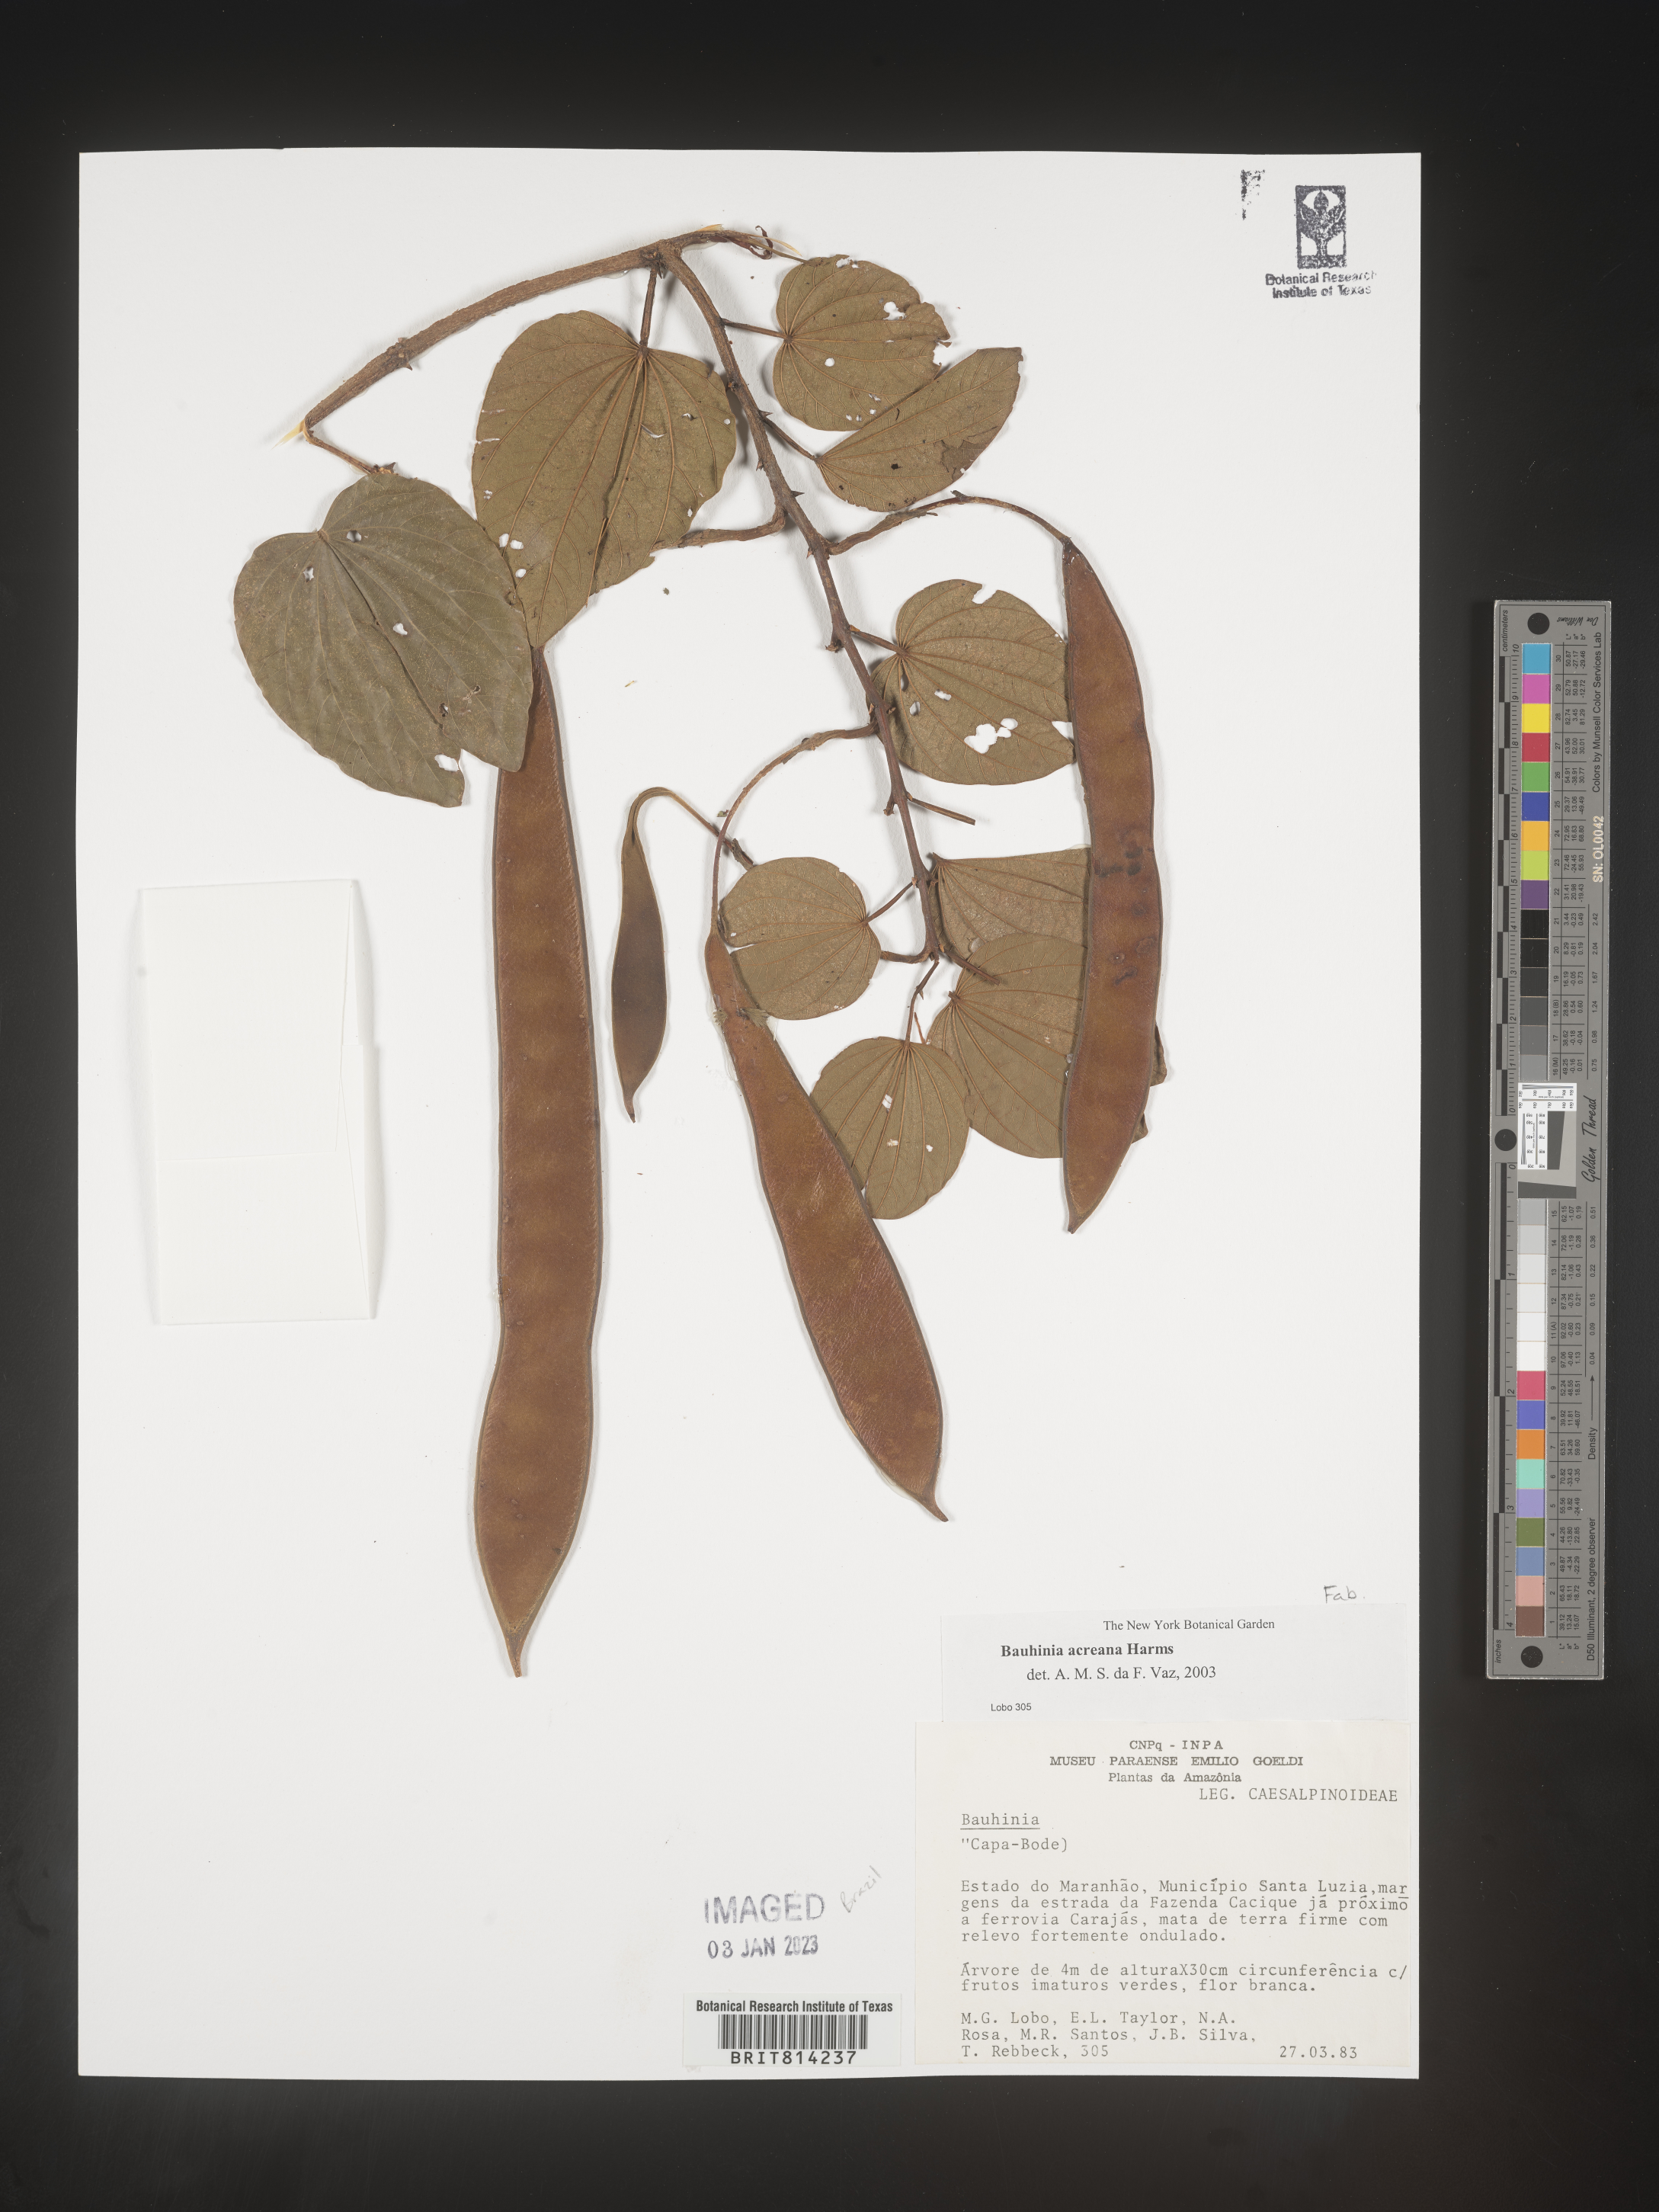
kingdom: Plantae
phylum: Tracheophyta
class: Magnoliopsida
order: Fabales
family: Fabaceae
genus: Bauhinia
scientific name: Bauhinia
